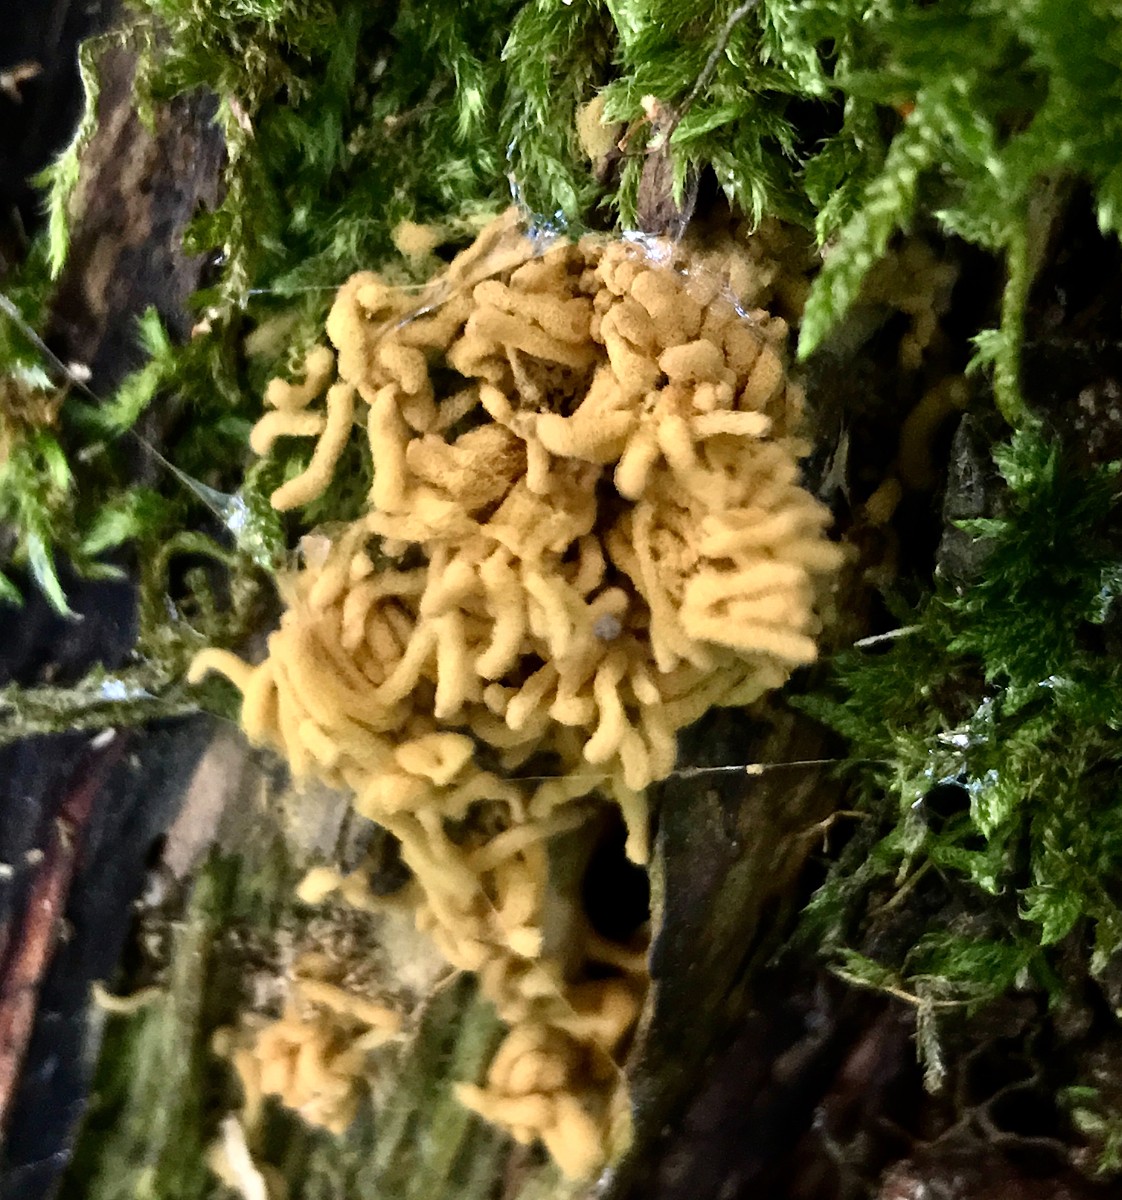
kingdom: Protozoa
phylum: Mycetozoa
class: Myxomycetes
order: Trichiales
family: Arcyriaceae
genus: Arcyria
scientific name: Arcyria obvelata
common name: okkergul skålsvøb
